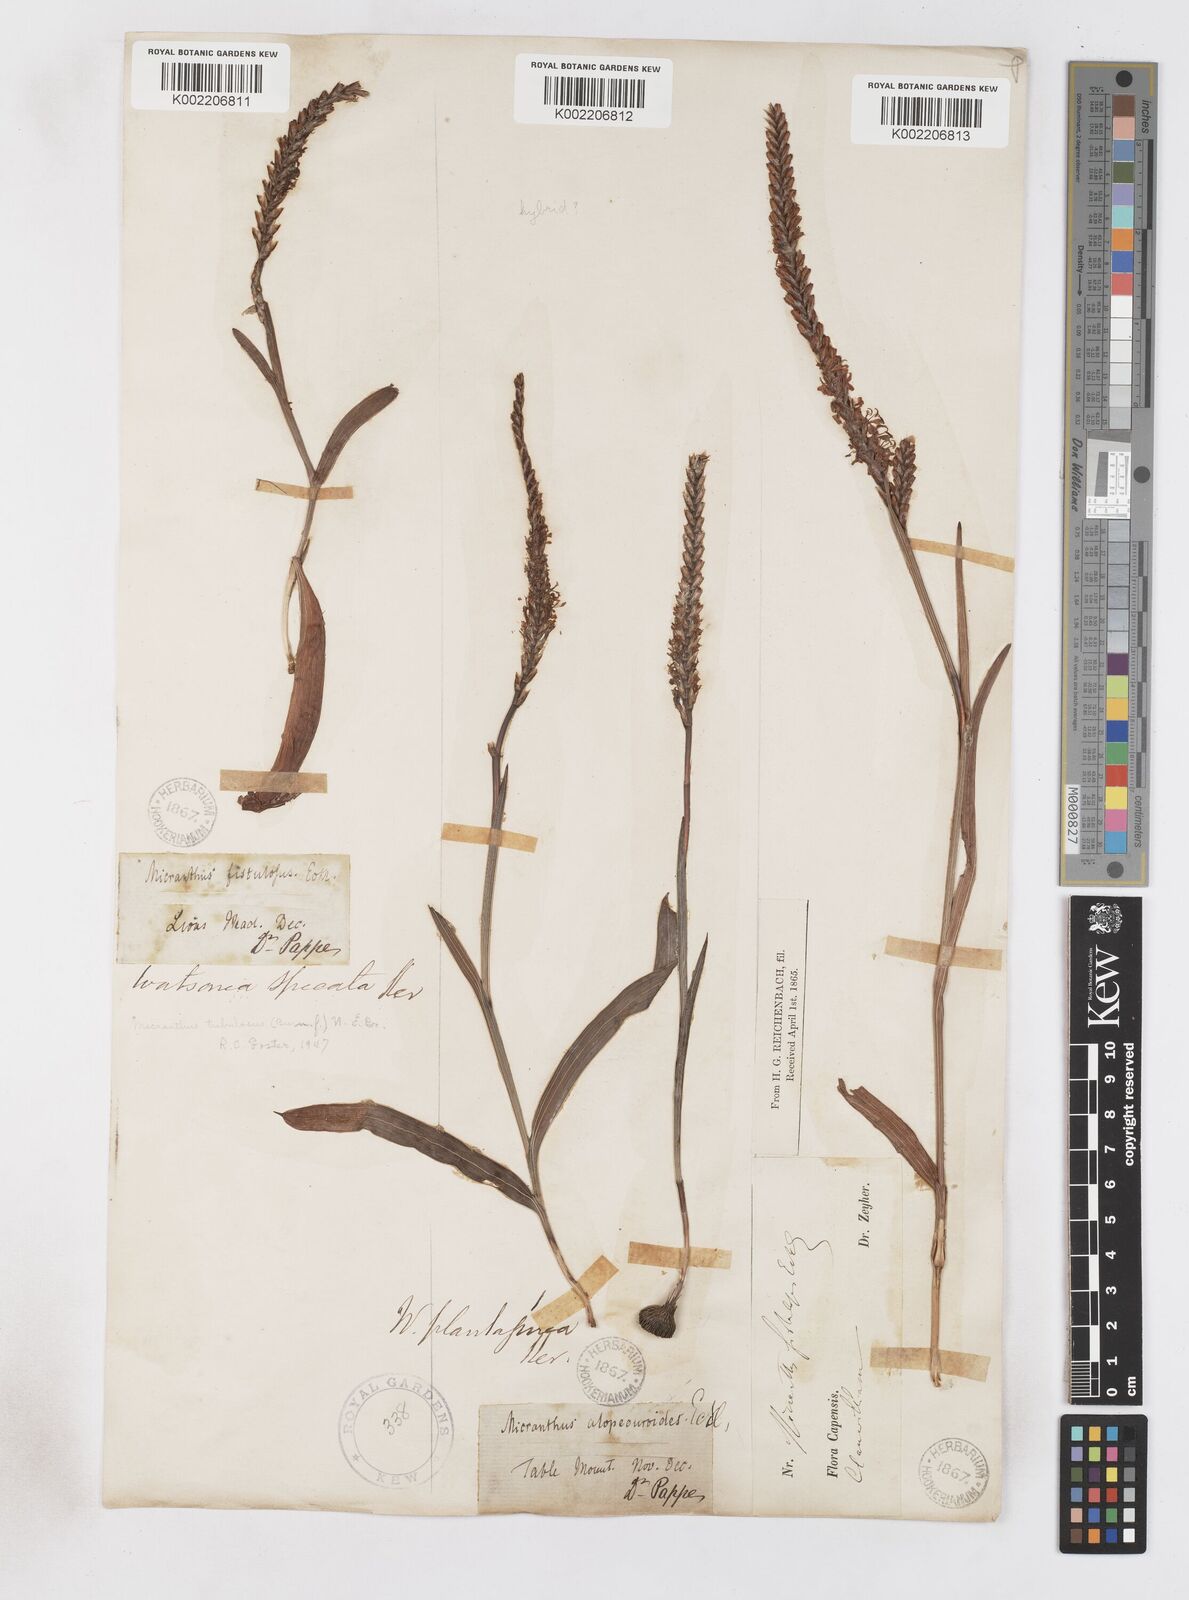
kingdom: Plantae
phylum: Tracheophyta
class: Liliopsida
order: Asparagales
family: Iridaceae
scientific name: Iridaceae
